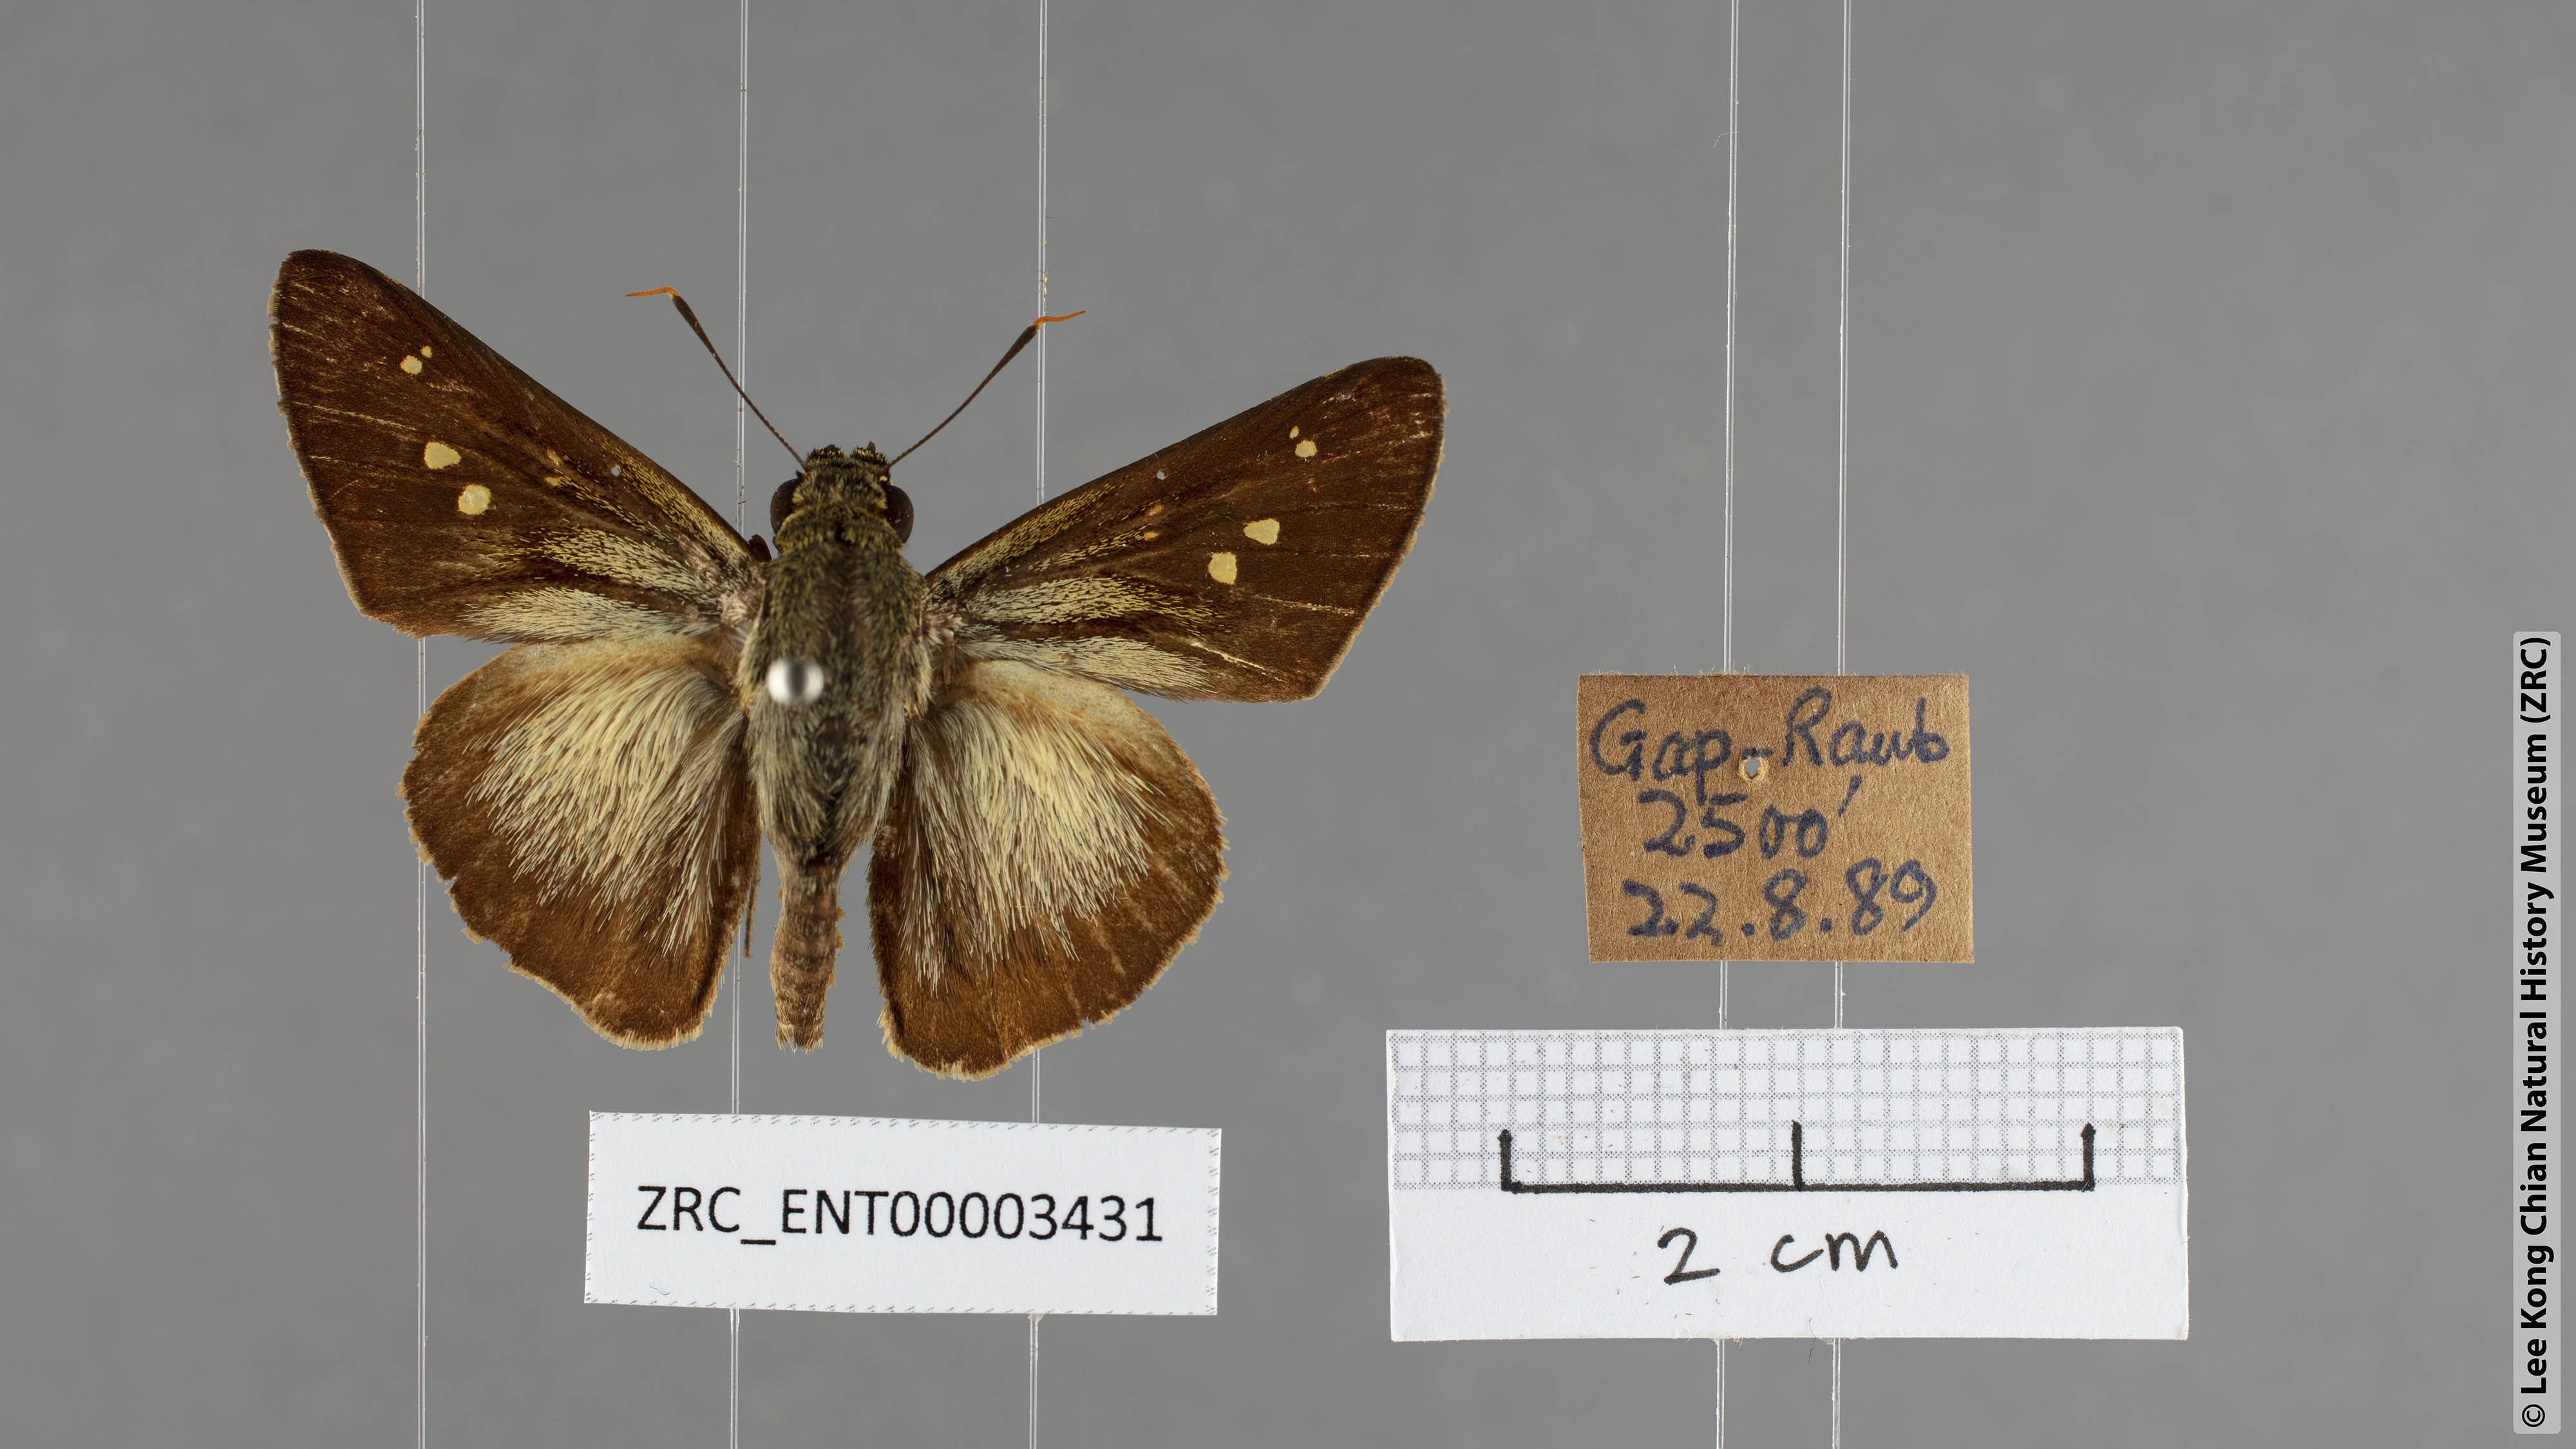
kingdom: Animalia
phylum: Arthropoda
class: Insecta
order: Lepidoptera
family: Hesperiidae
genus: Pithauria
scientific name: Pithauria stramineipennis
